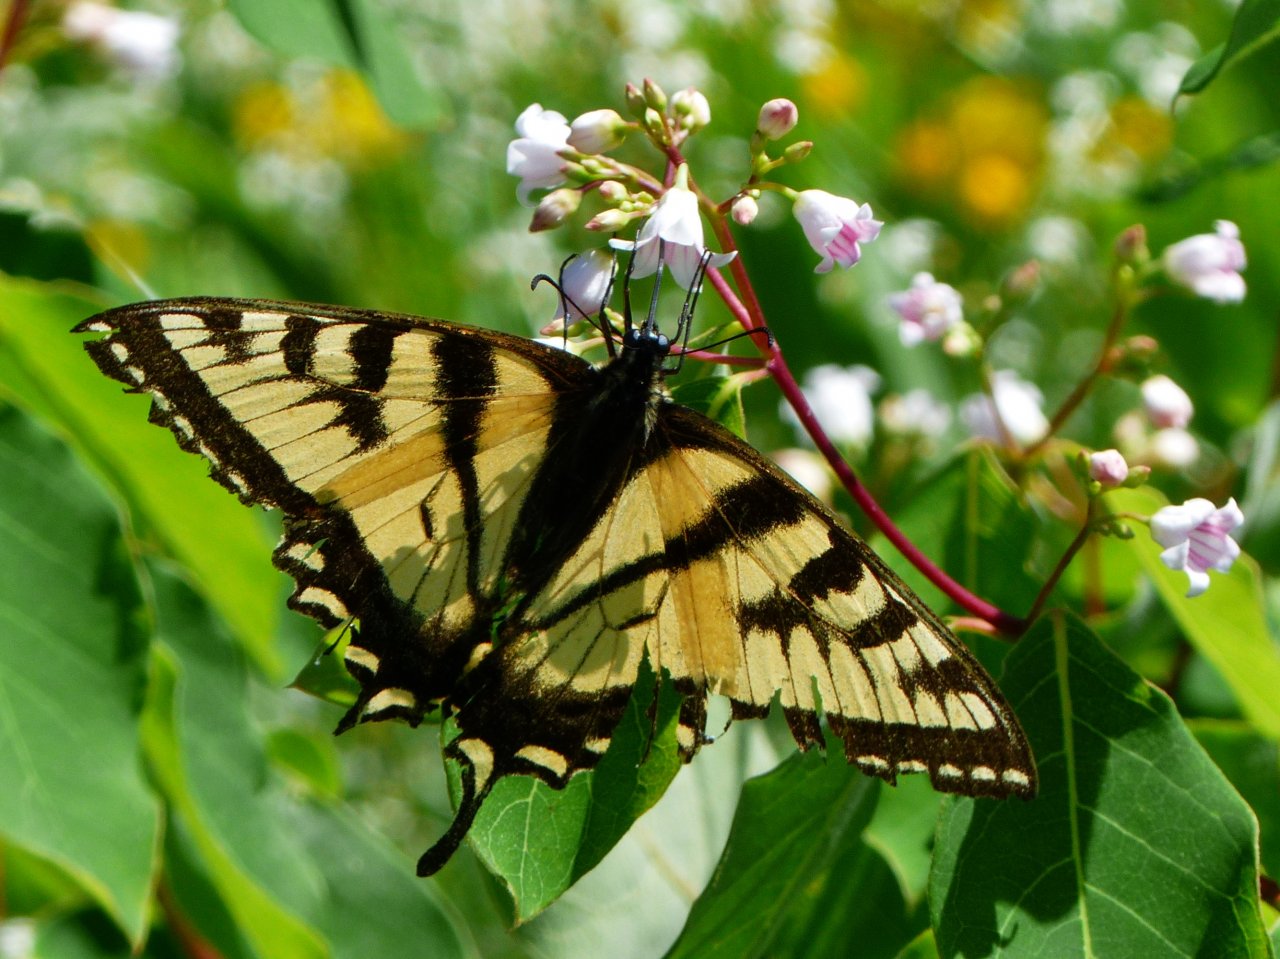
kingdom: Animalia
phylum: Arthropoda
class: Insecta
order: Lepidoptera
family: Papilionidae
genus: Pterourus
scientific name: Pterourus canadensis
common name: Canadian Tiger Swallowtail
